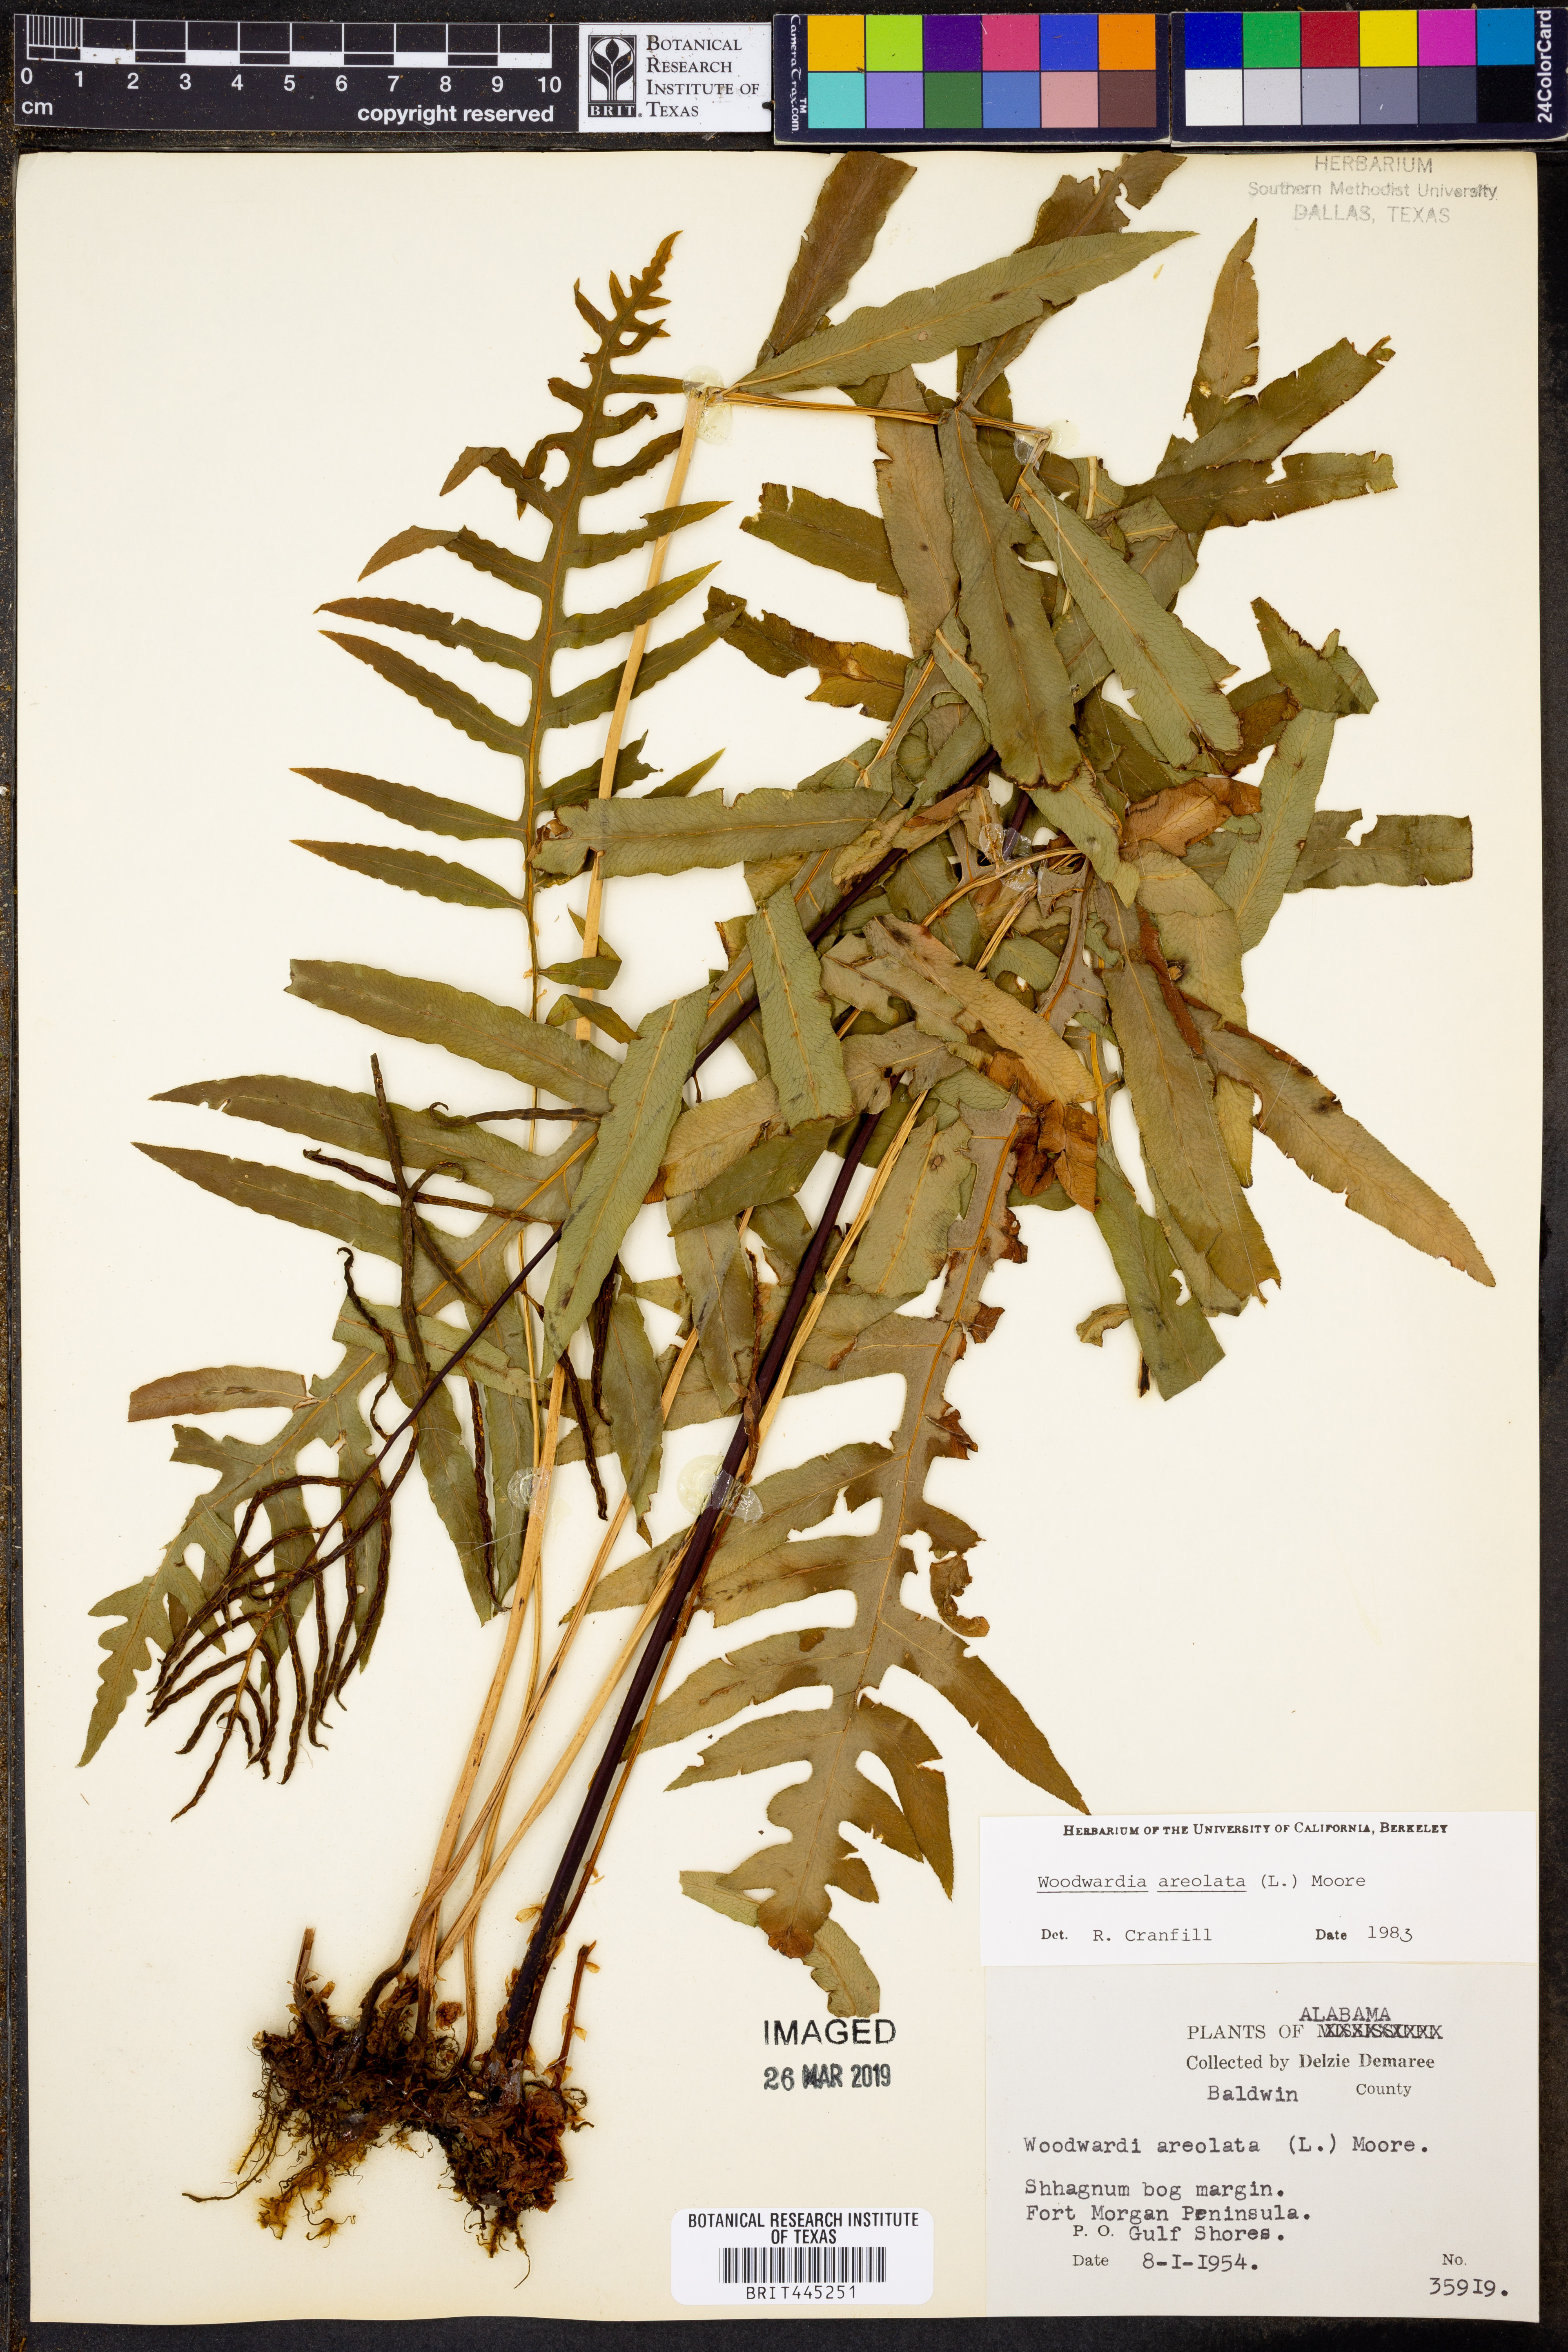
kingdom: Plantae
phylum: Tracheophyta
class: Polypodiopsida
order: Polypodiales
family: Blechnaceae
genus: Lorinseria
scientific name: Lorinseria areolata
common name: Dwarf chain fern
